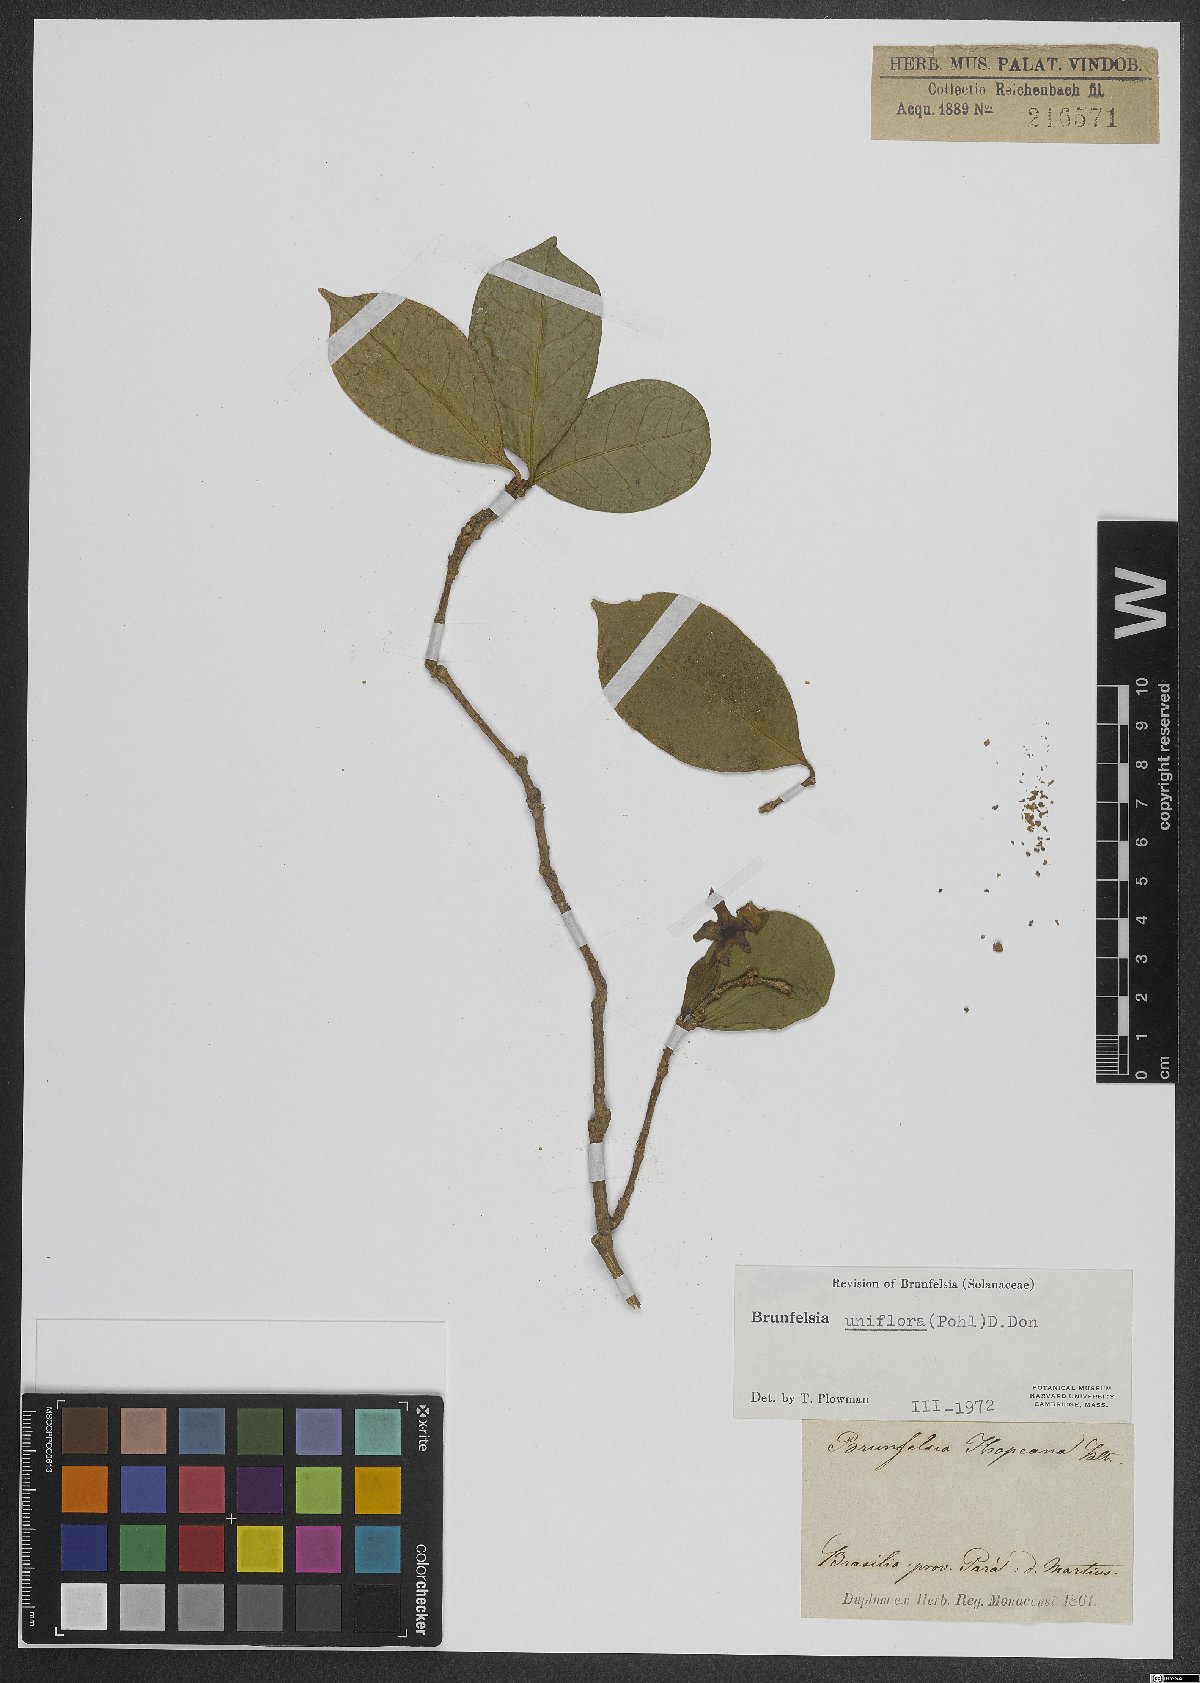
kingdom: Plantae
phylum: Tracheophyta
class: Magnoliopsida
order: Solanales
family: Solanaceae
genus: Brunfelsia
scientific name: Brunfelsia uniflora
